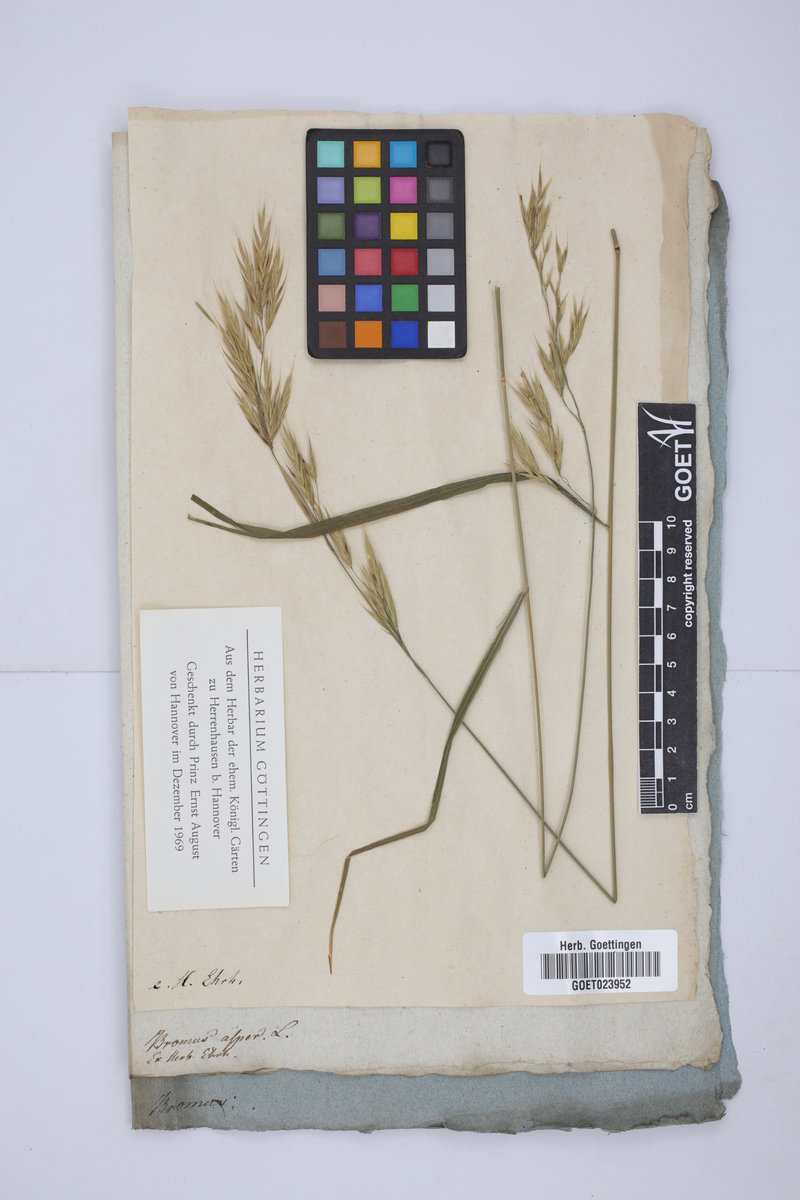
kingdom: Plantae
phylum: Tracheophyta
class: Liliopsida
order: Poales
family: Poaceae
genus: Bromus
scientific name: Bromus erectus
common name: Erect brome
